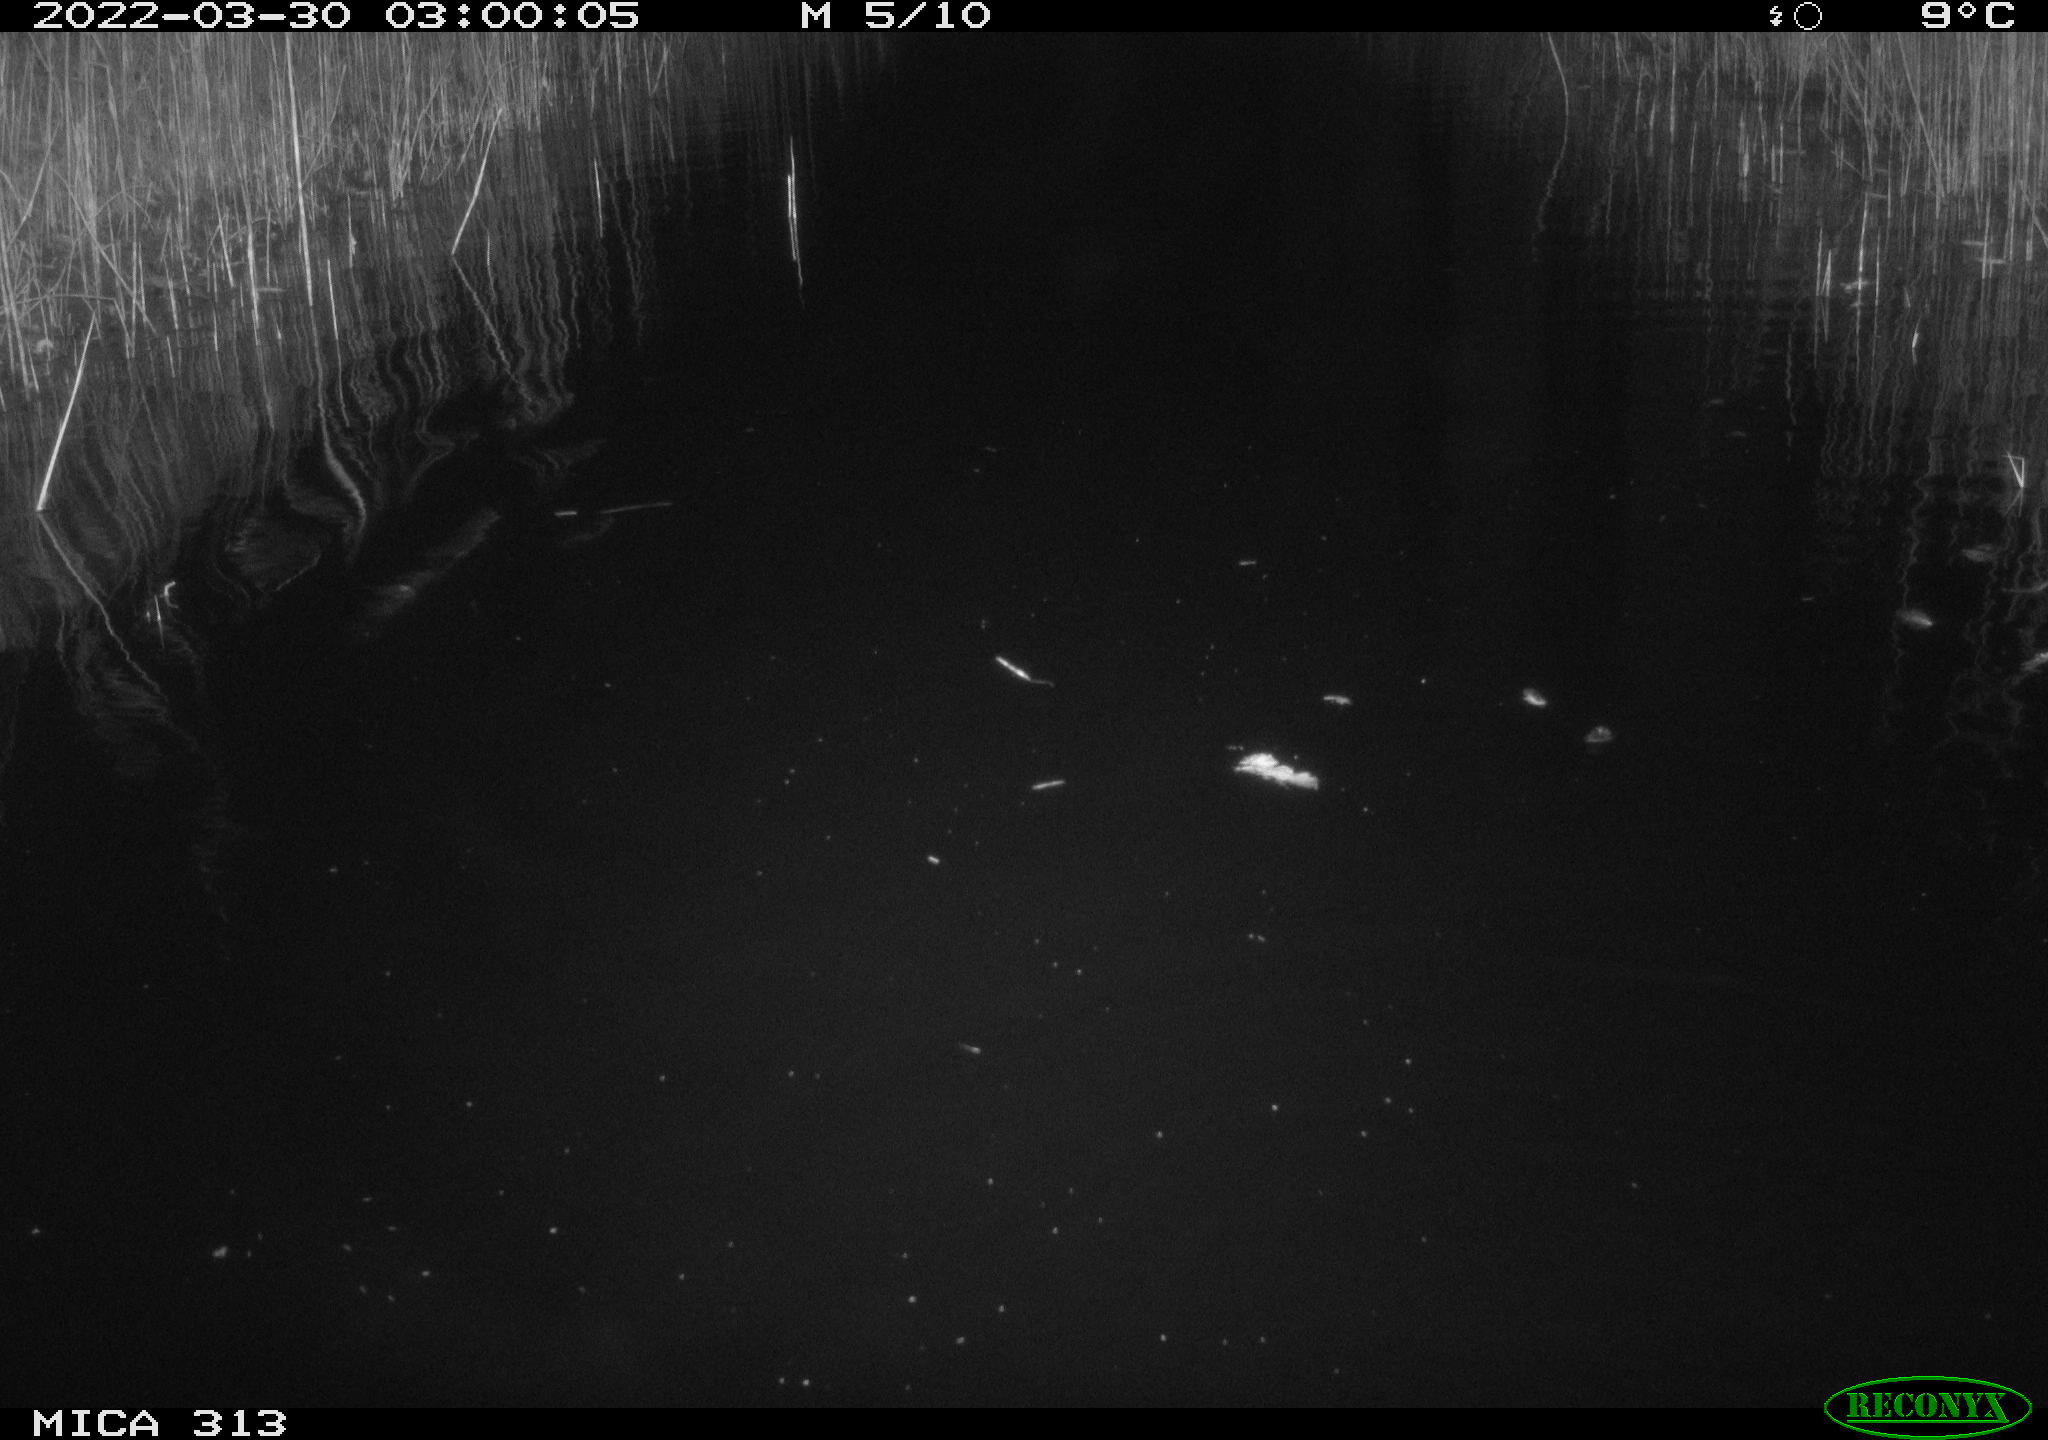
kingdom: Animalia
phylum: Chordata
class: Aves
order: Gruiformes
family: Rallidae
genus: Gallinula
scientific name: Gallinula chloropus
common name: Common moorhen
